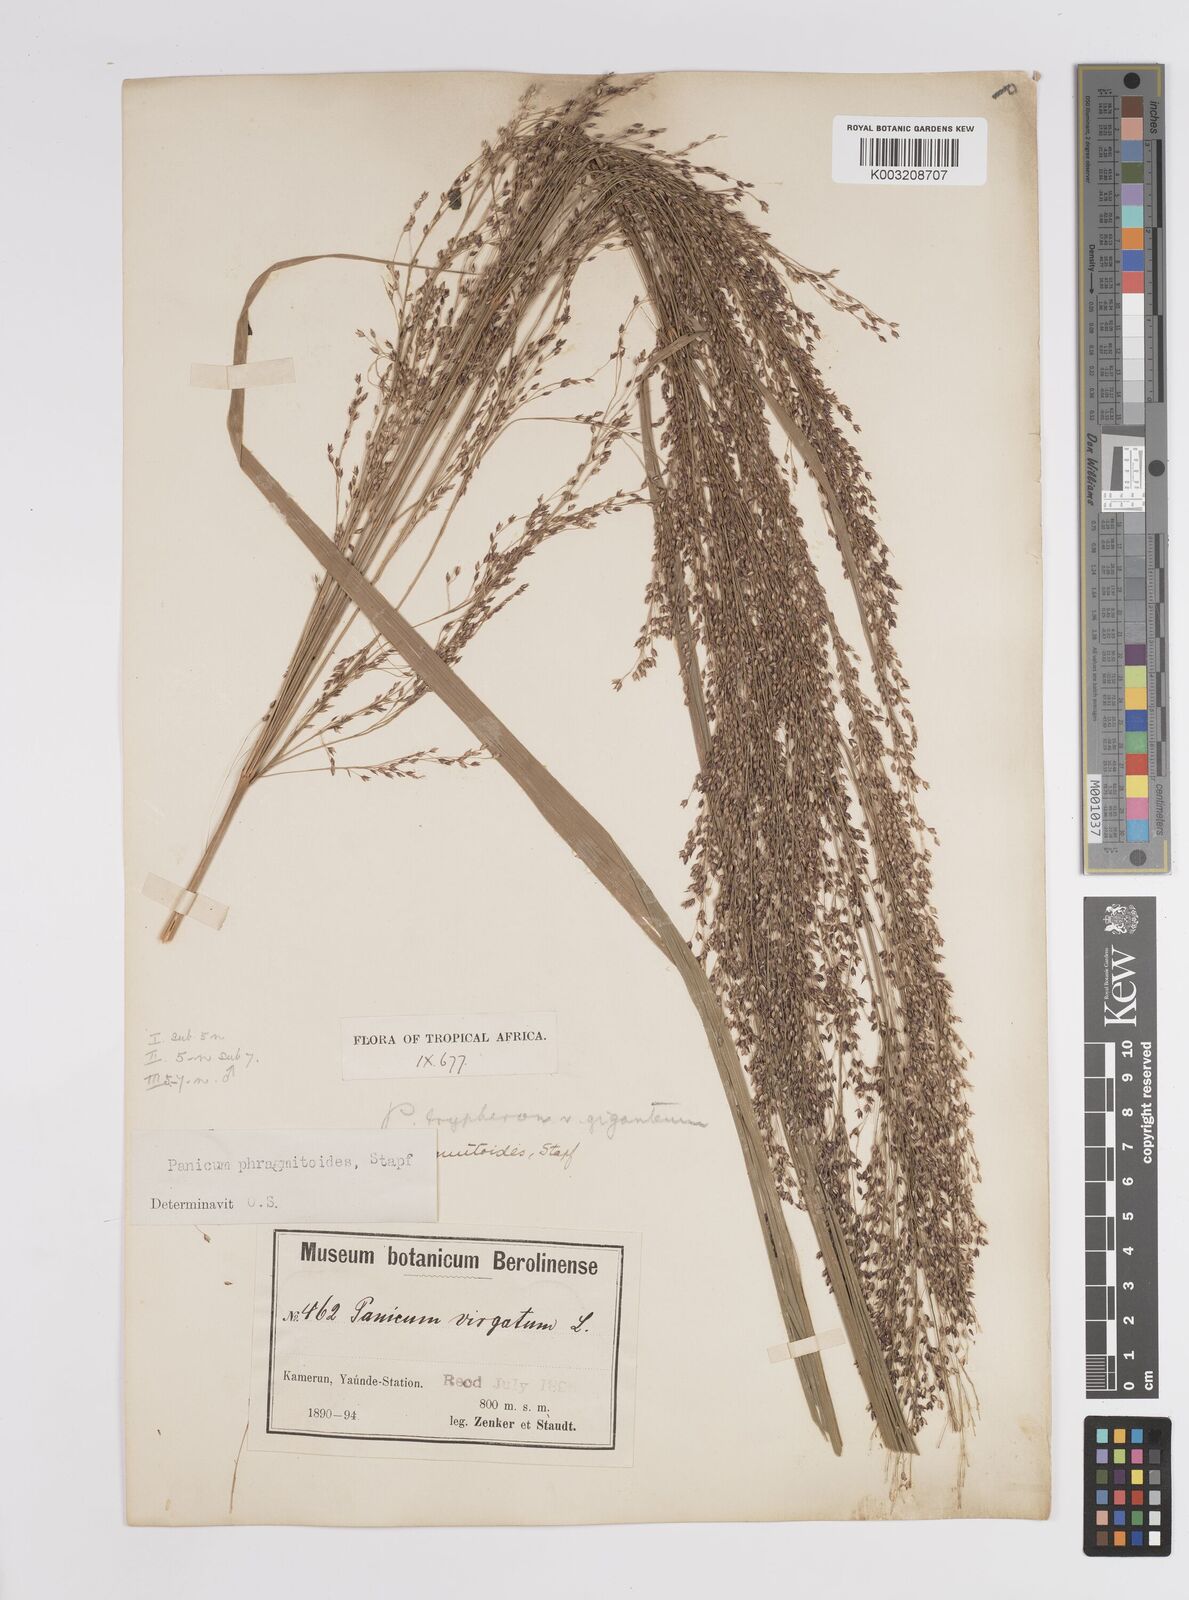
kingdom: Plantae
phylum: Tracheophyta
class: Liliopsida
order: Poales
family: Poaceae
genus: Panicum
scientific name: Panicum phragmitoides
